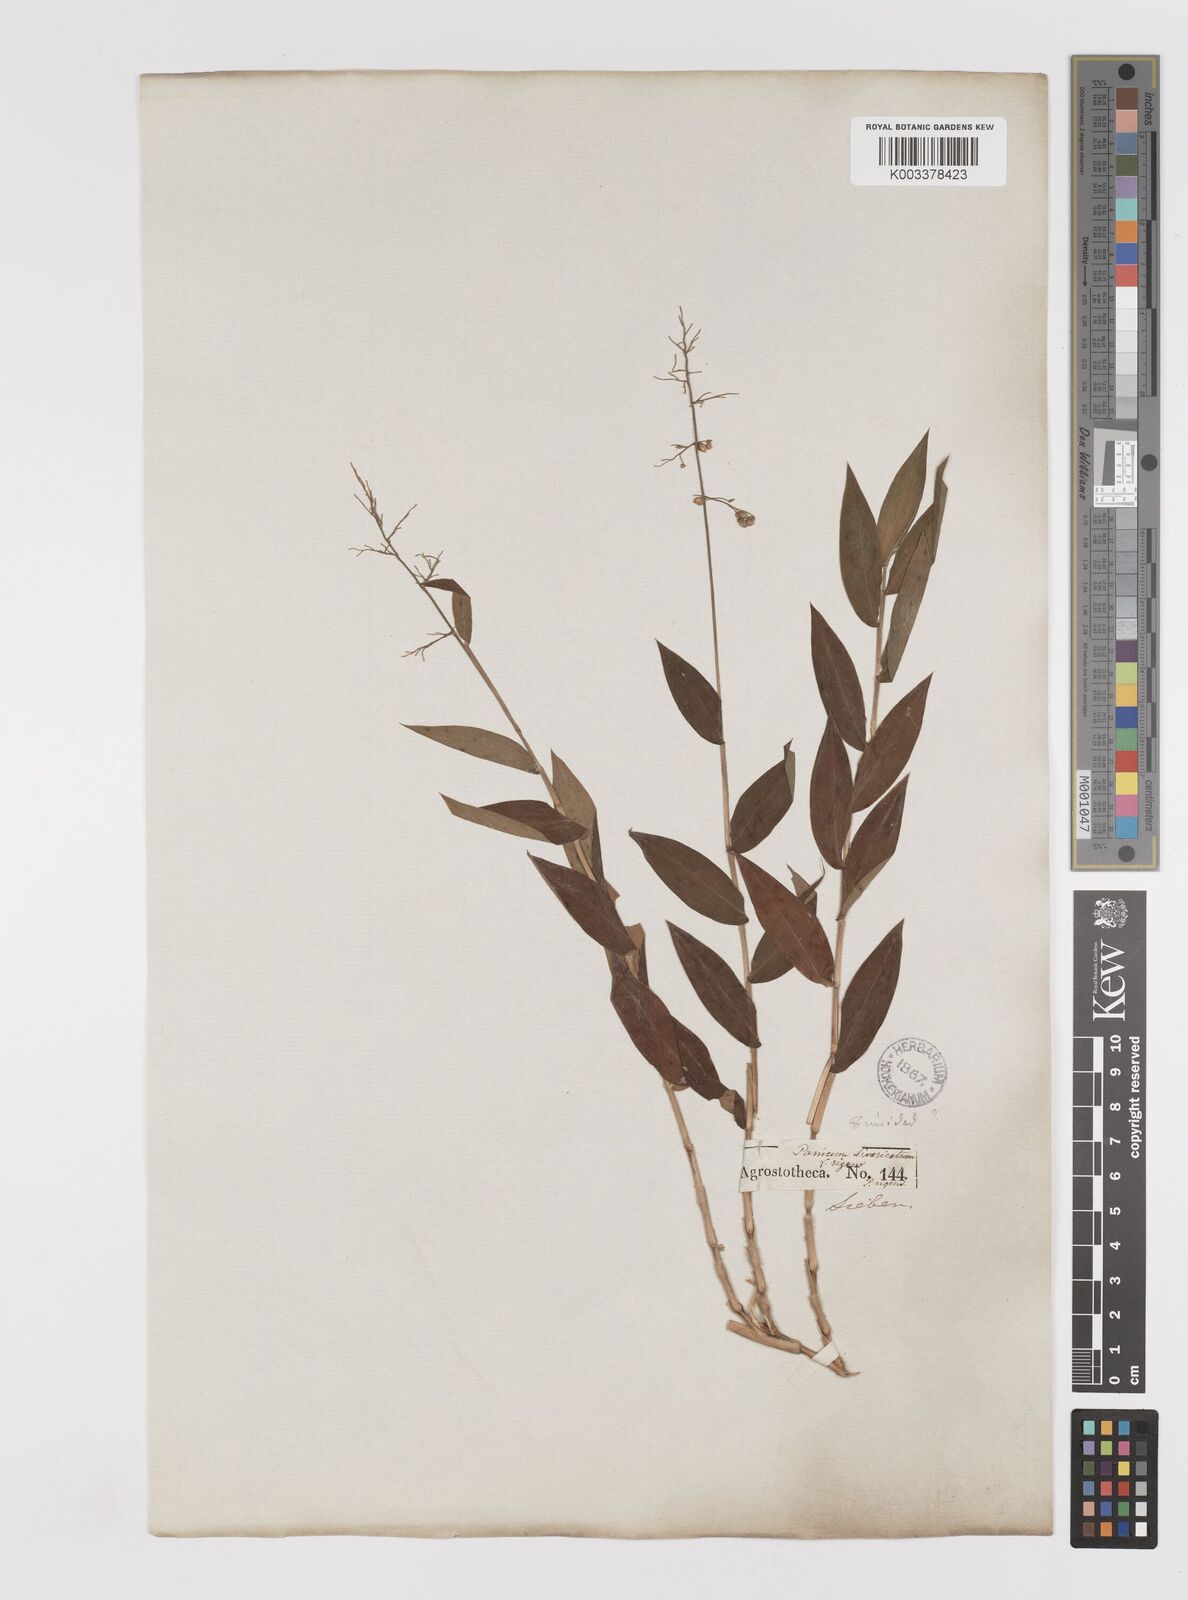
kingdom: Plantae
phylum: Tracheophyta
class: Liliopsida
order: Poales
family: Poaceae
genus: Lasiacis
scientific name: Lasiacis anomala
